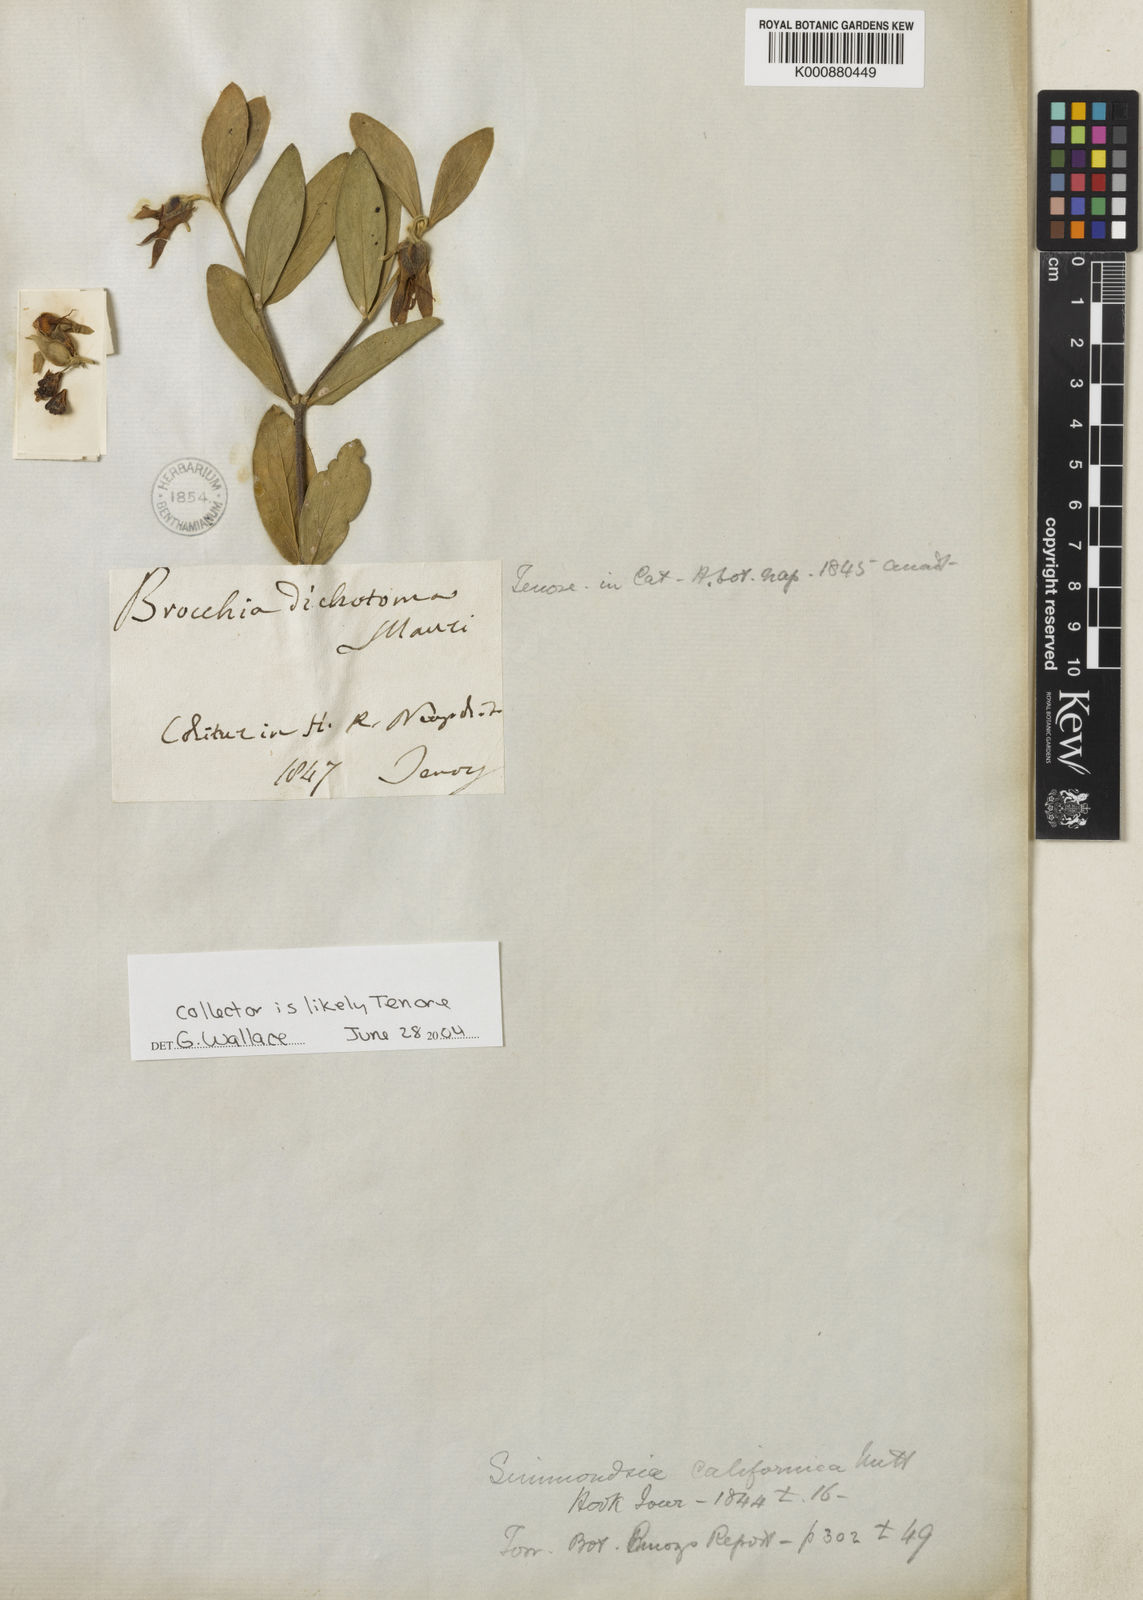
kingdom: Plantae
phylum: Tracheophyta
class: Magnoliopsida
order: Caryophyllales
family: Simmondsiaceae
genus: Simmondsia
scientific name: Simmondsia chinensis
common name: Jojoba
